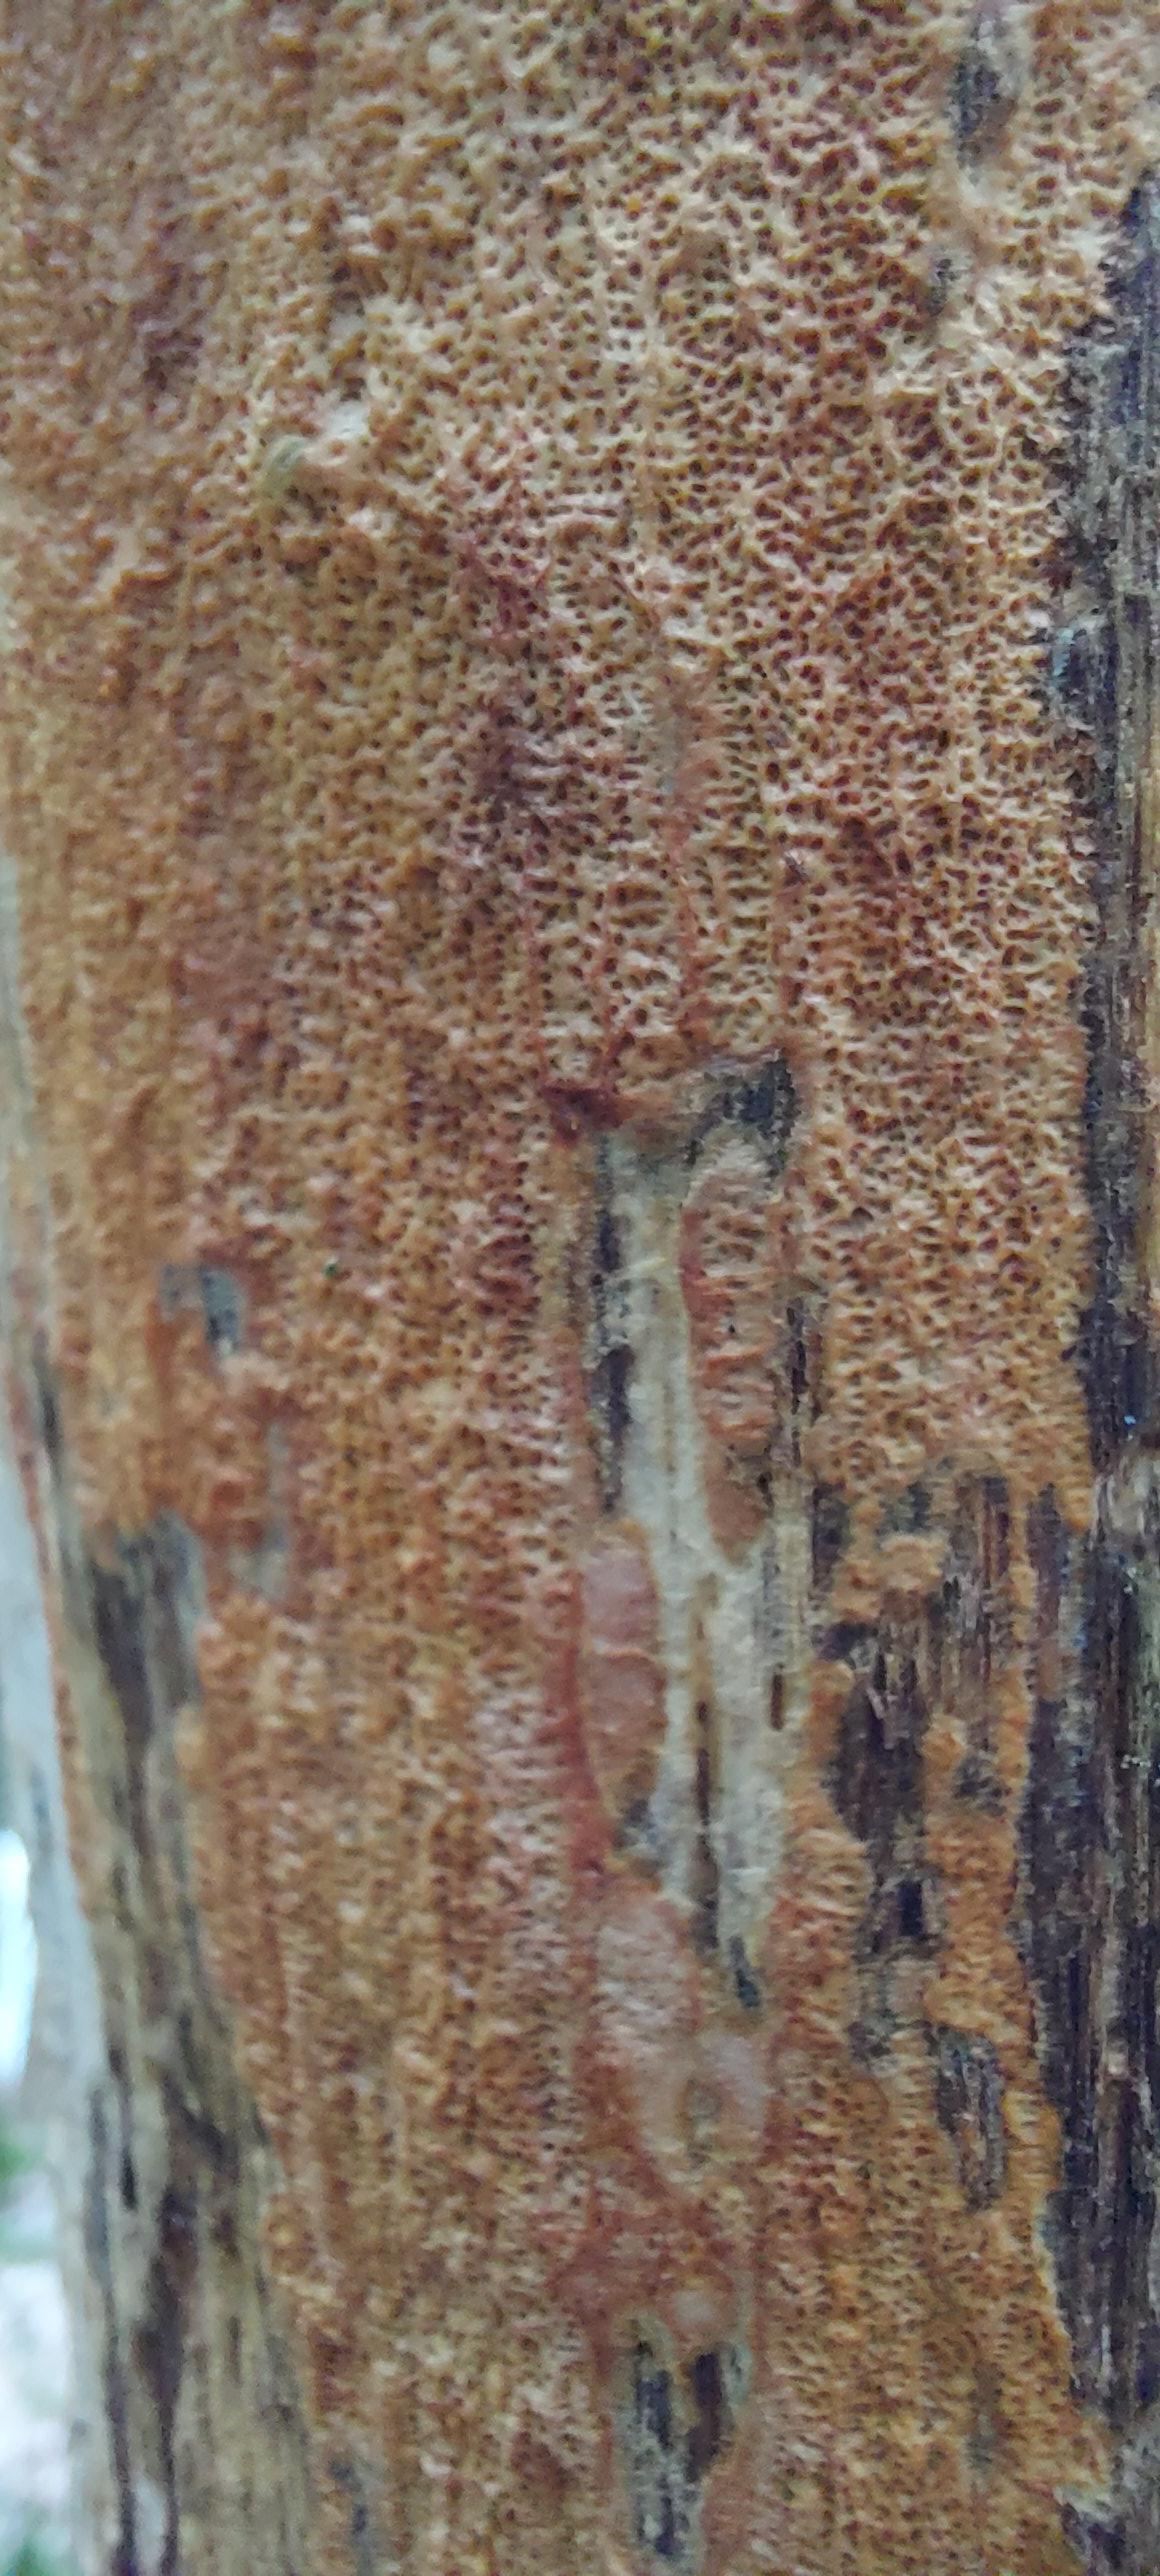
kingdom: Fungi
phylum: Basidiomycota
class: Agaricomycetes
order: Polyporales
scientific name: Polyporales
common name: poresvampordenen
